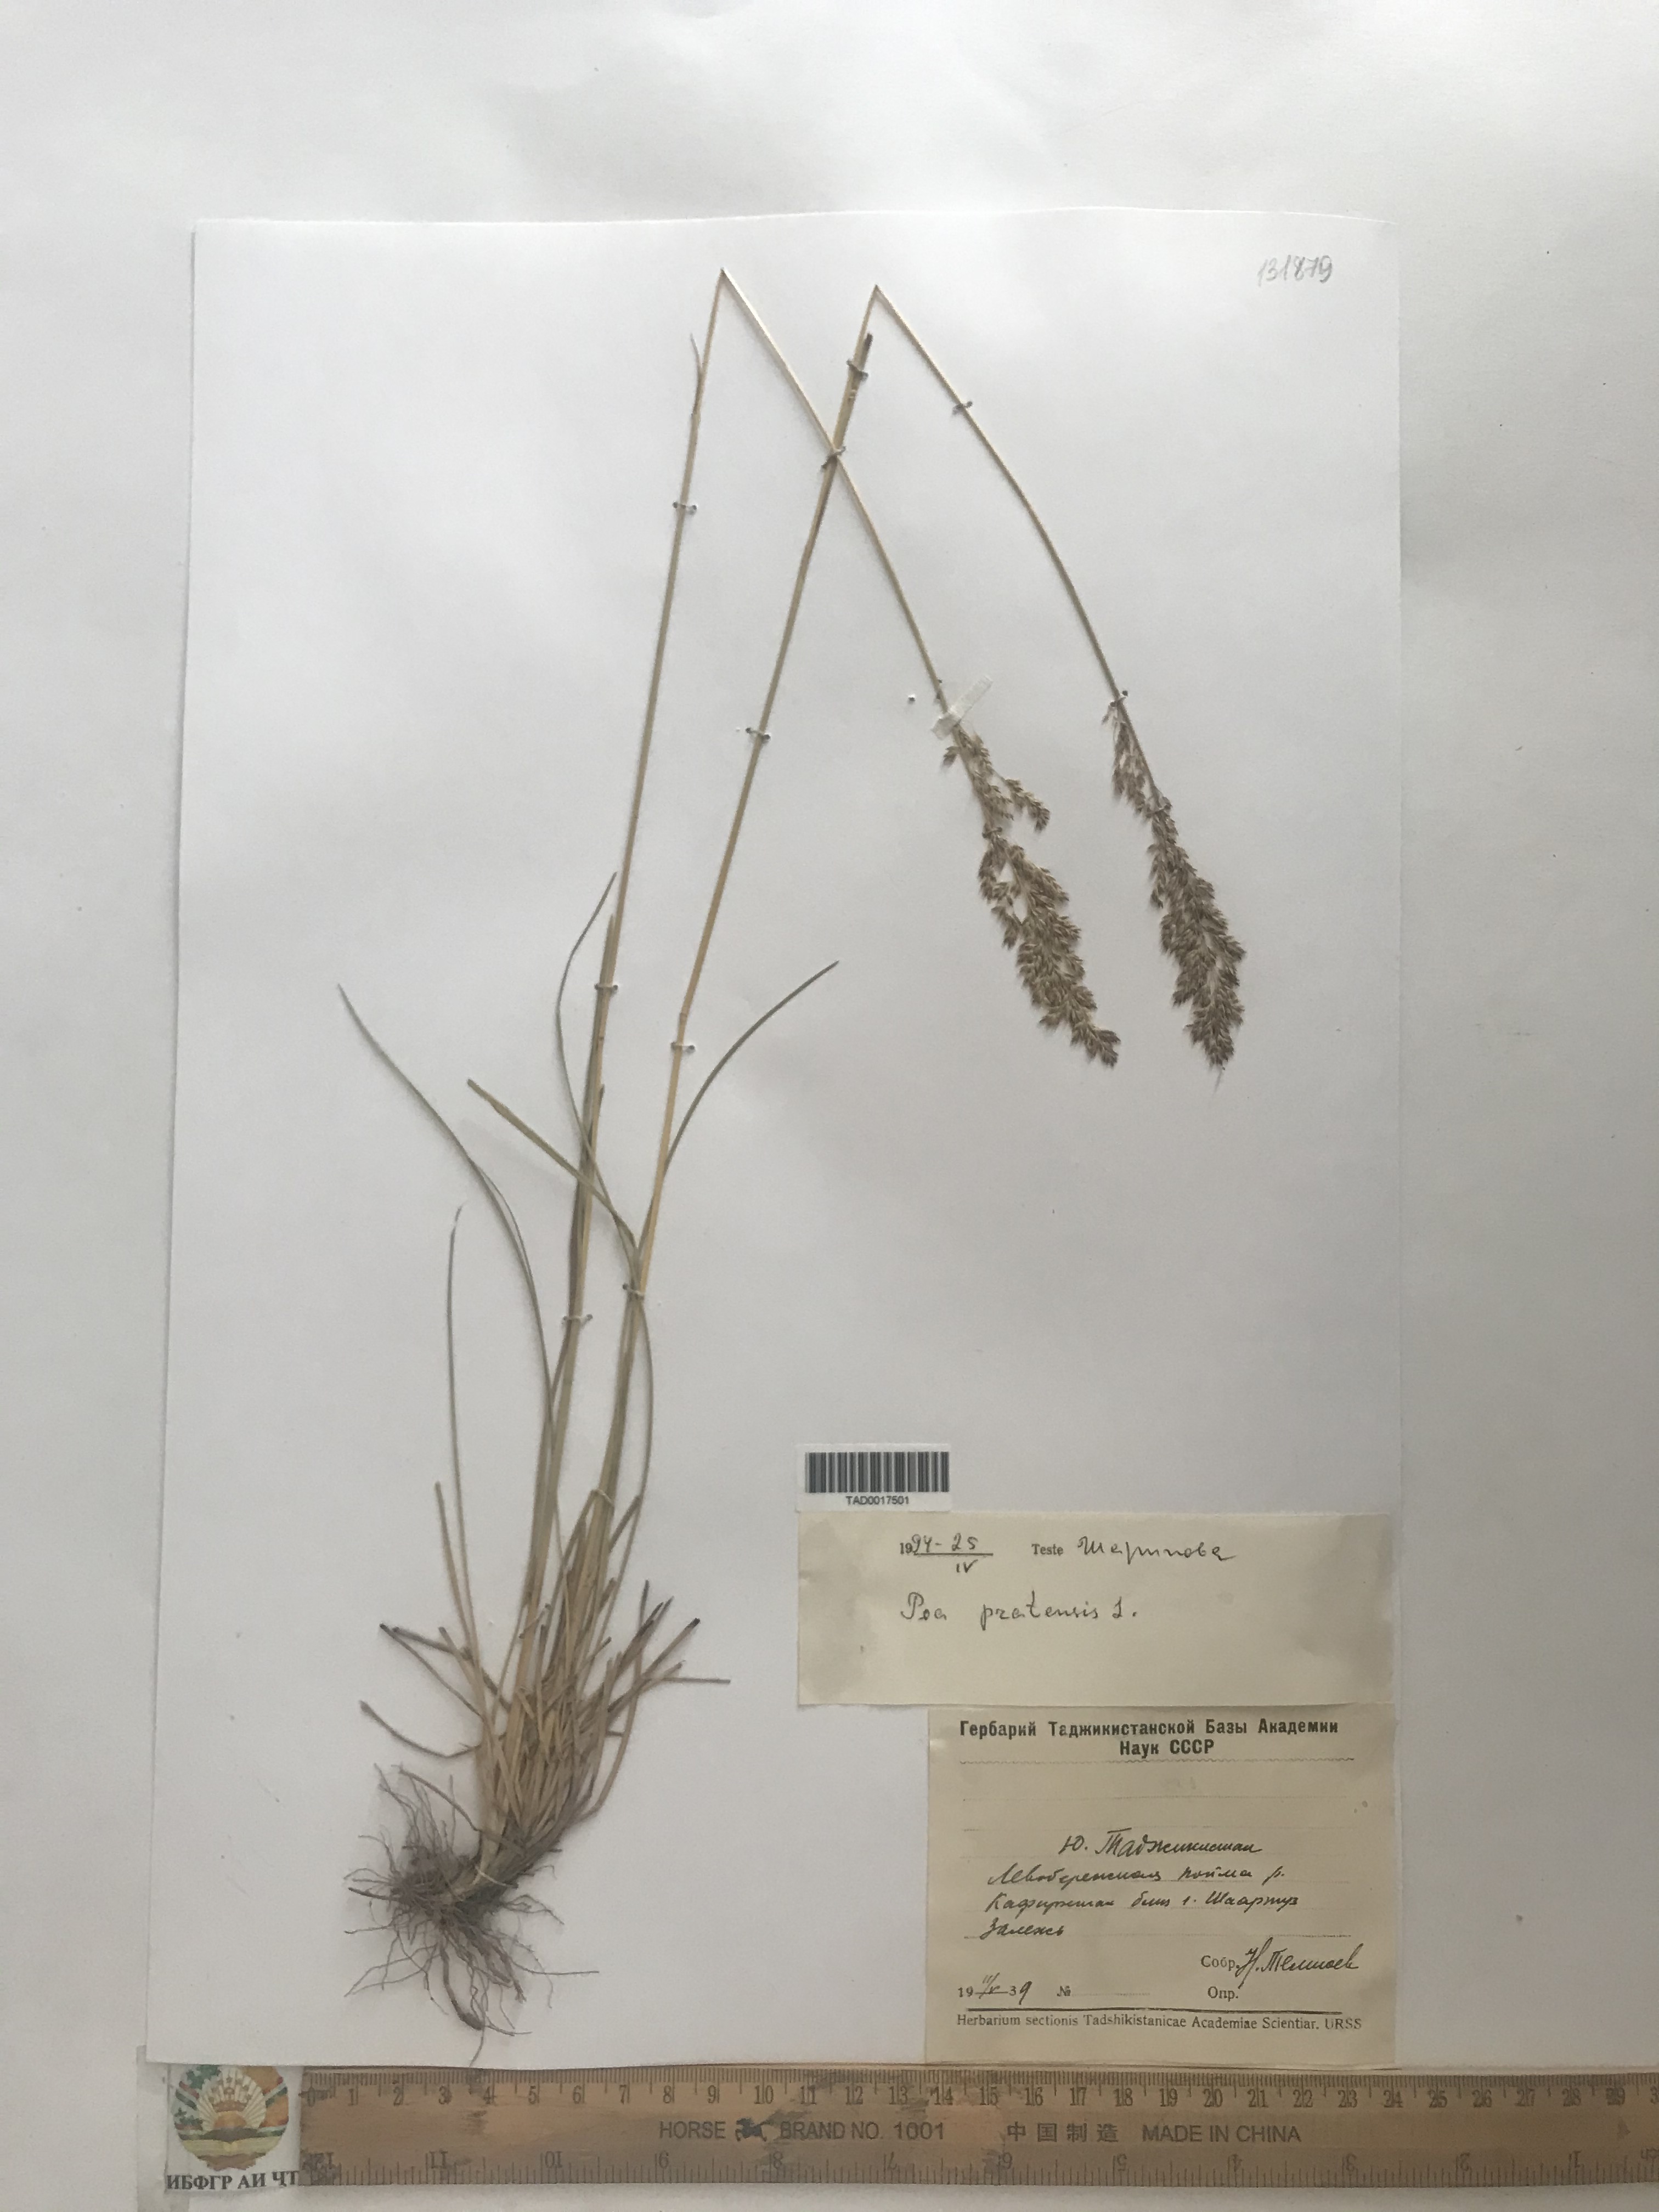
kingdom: Plantae
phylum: Tracheophyta
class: Liliopsida
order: Poales
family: Poaceae
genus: Poa
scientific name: Poa pratensis
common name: Kentucky bluegrass
